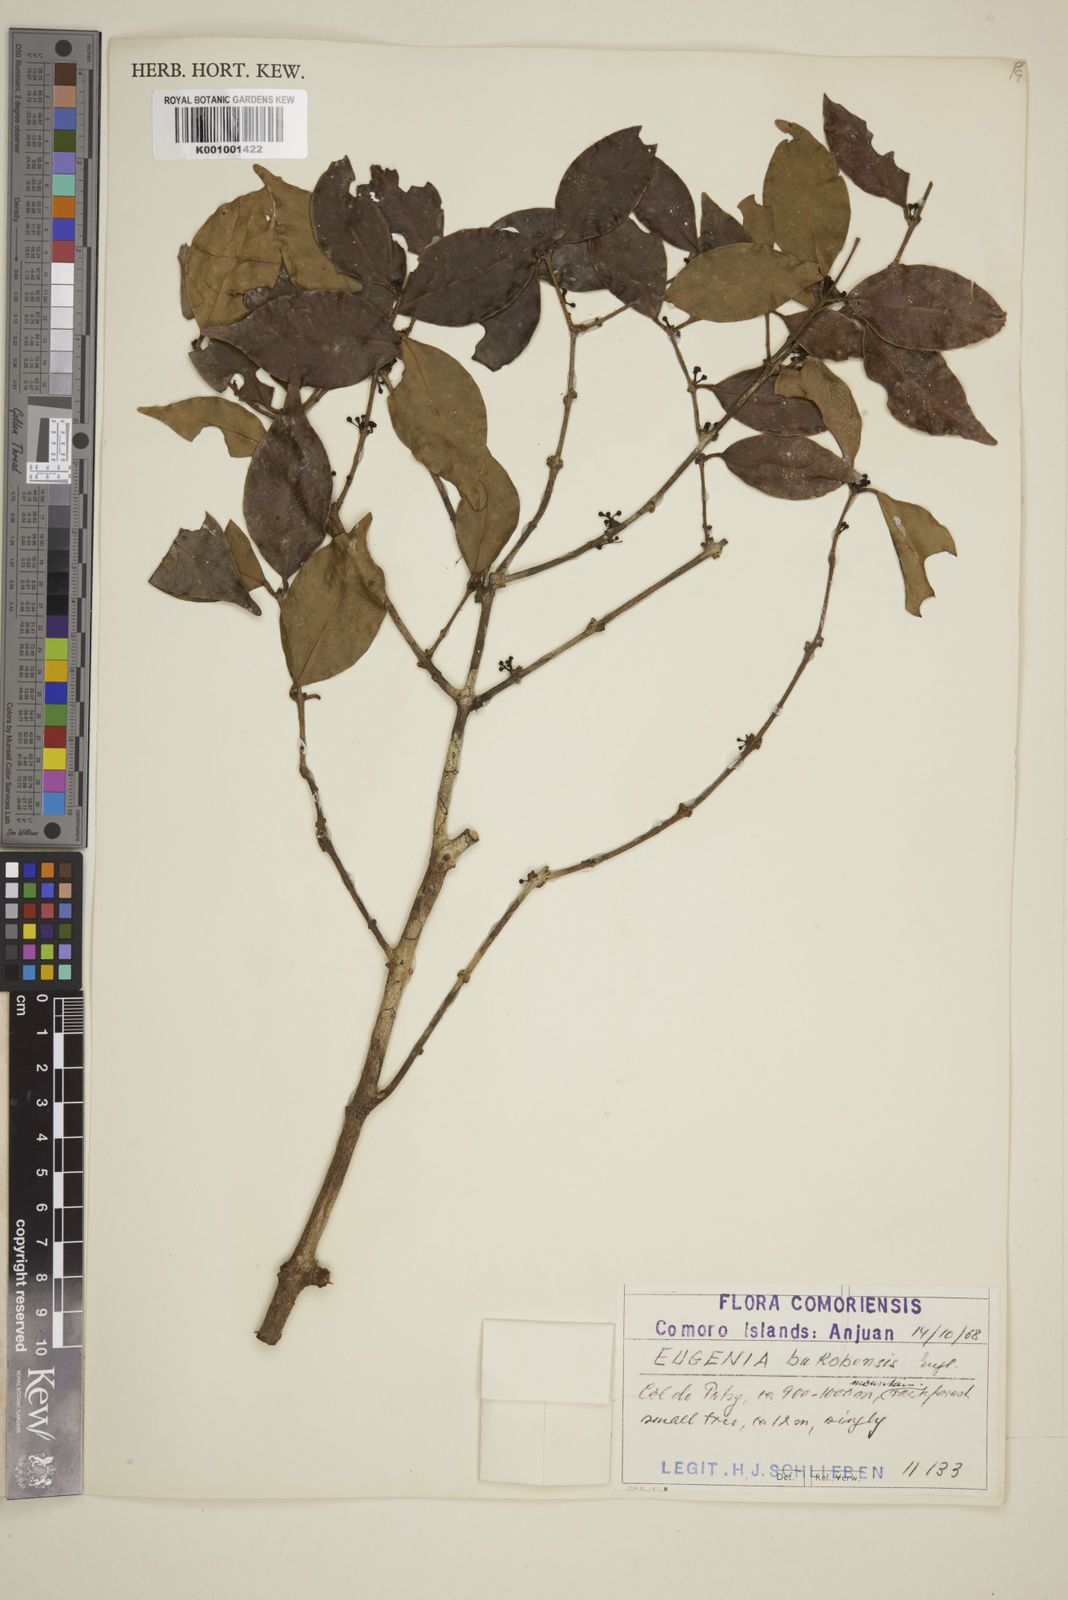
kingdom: Plantae
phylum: Tracheophyta
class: Magnoliopsida
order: Myrtales
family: Myrtaceae
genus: Eugenia
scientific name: Eugenia comorensis
